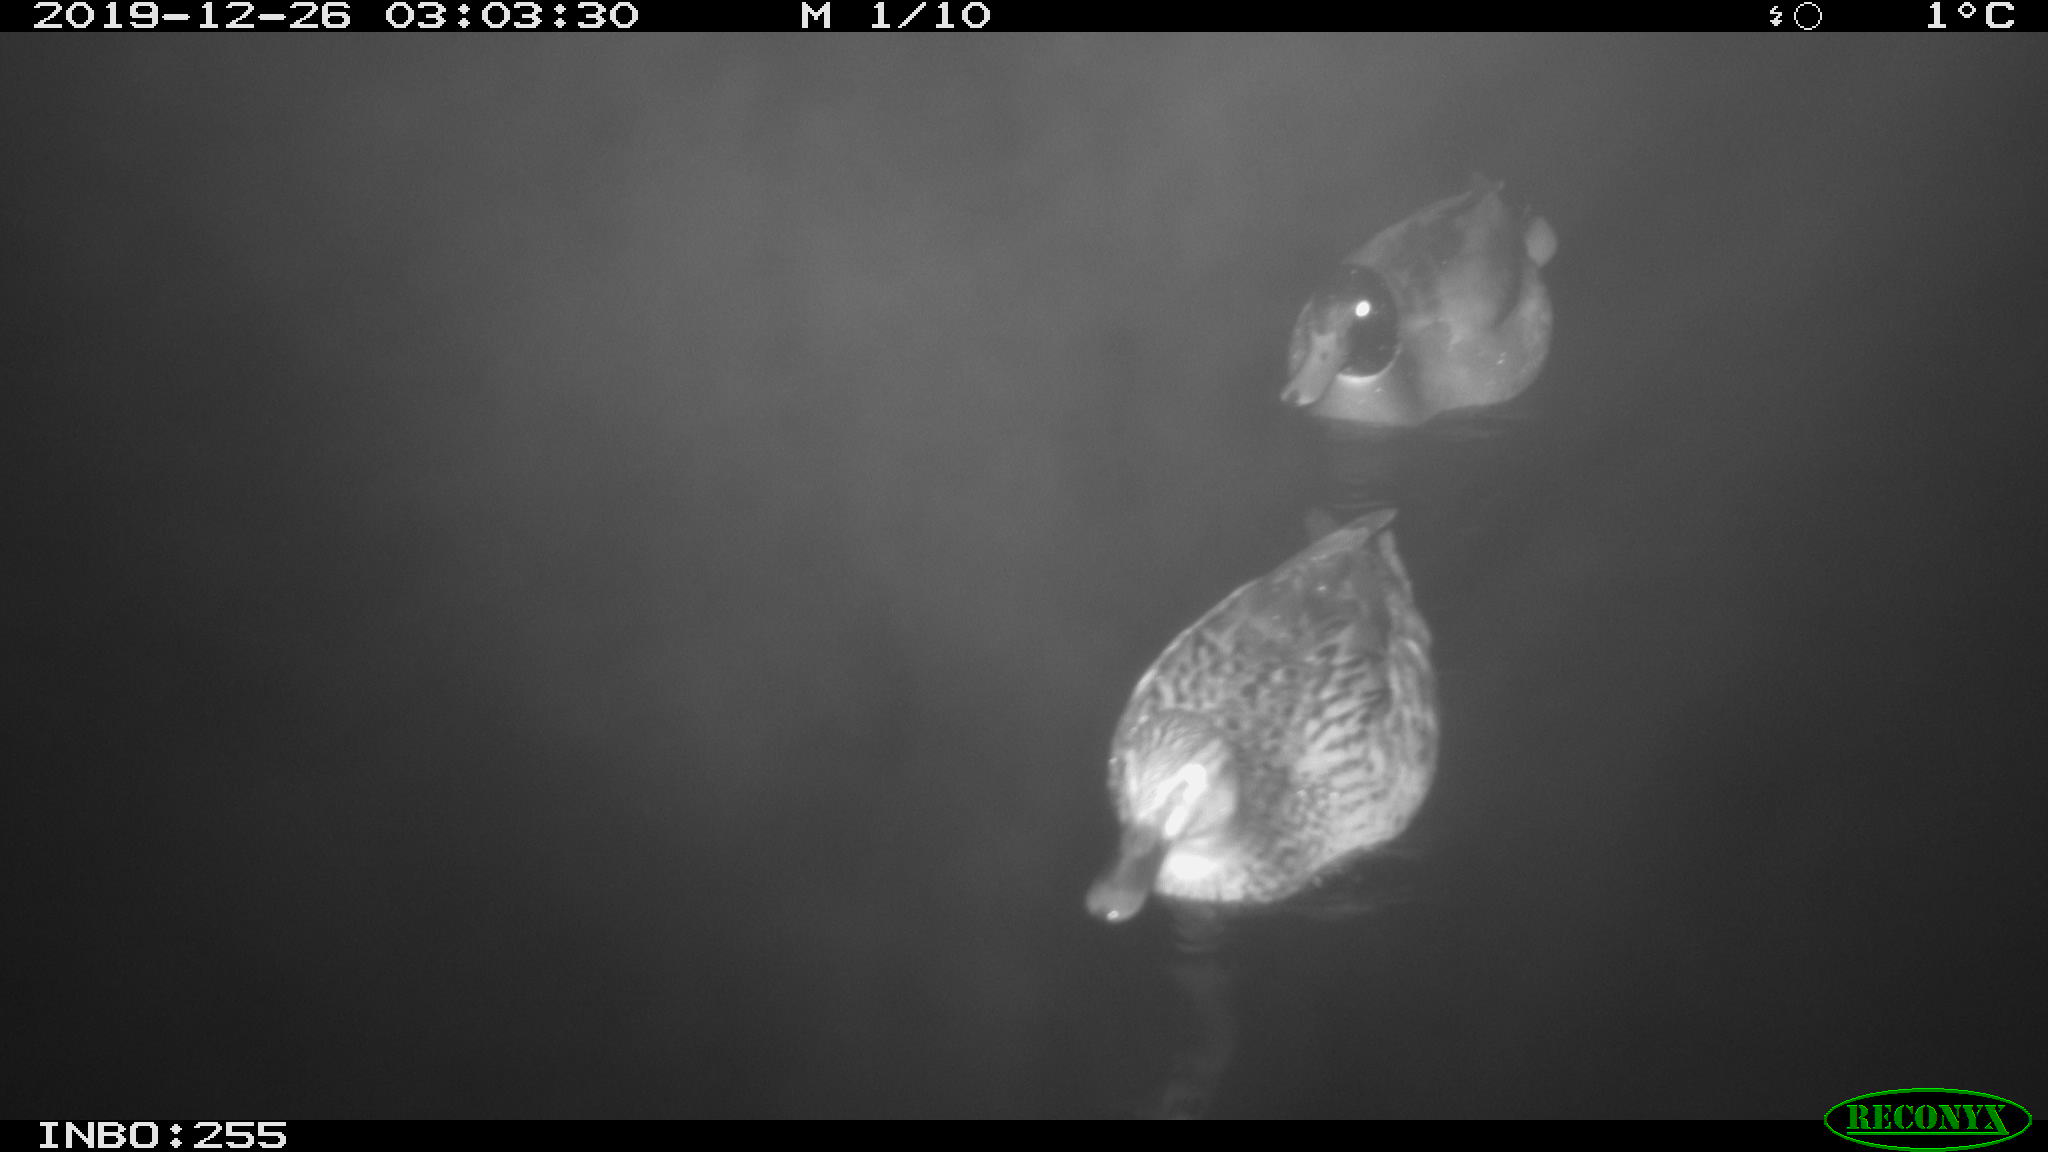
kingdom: Animalia
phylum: Chordata
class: Aves
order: Anseriformes
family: Anatidae
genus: Anas
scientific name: Anas platyrhynchos
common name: Mallard
